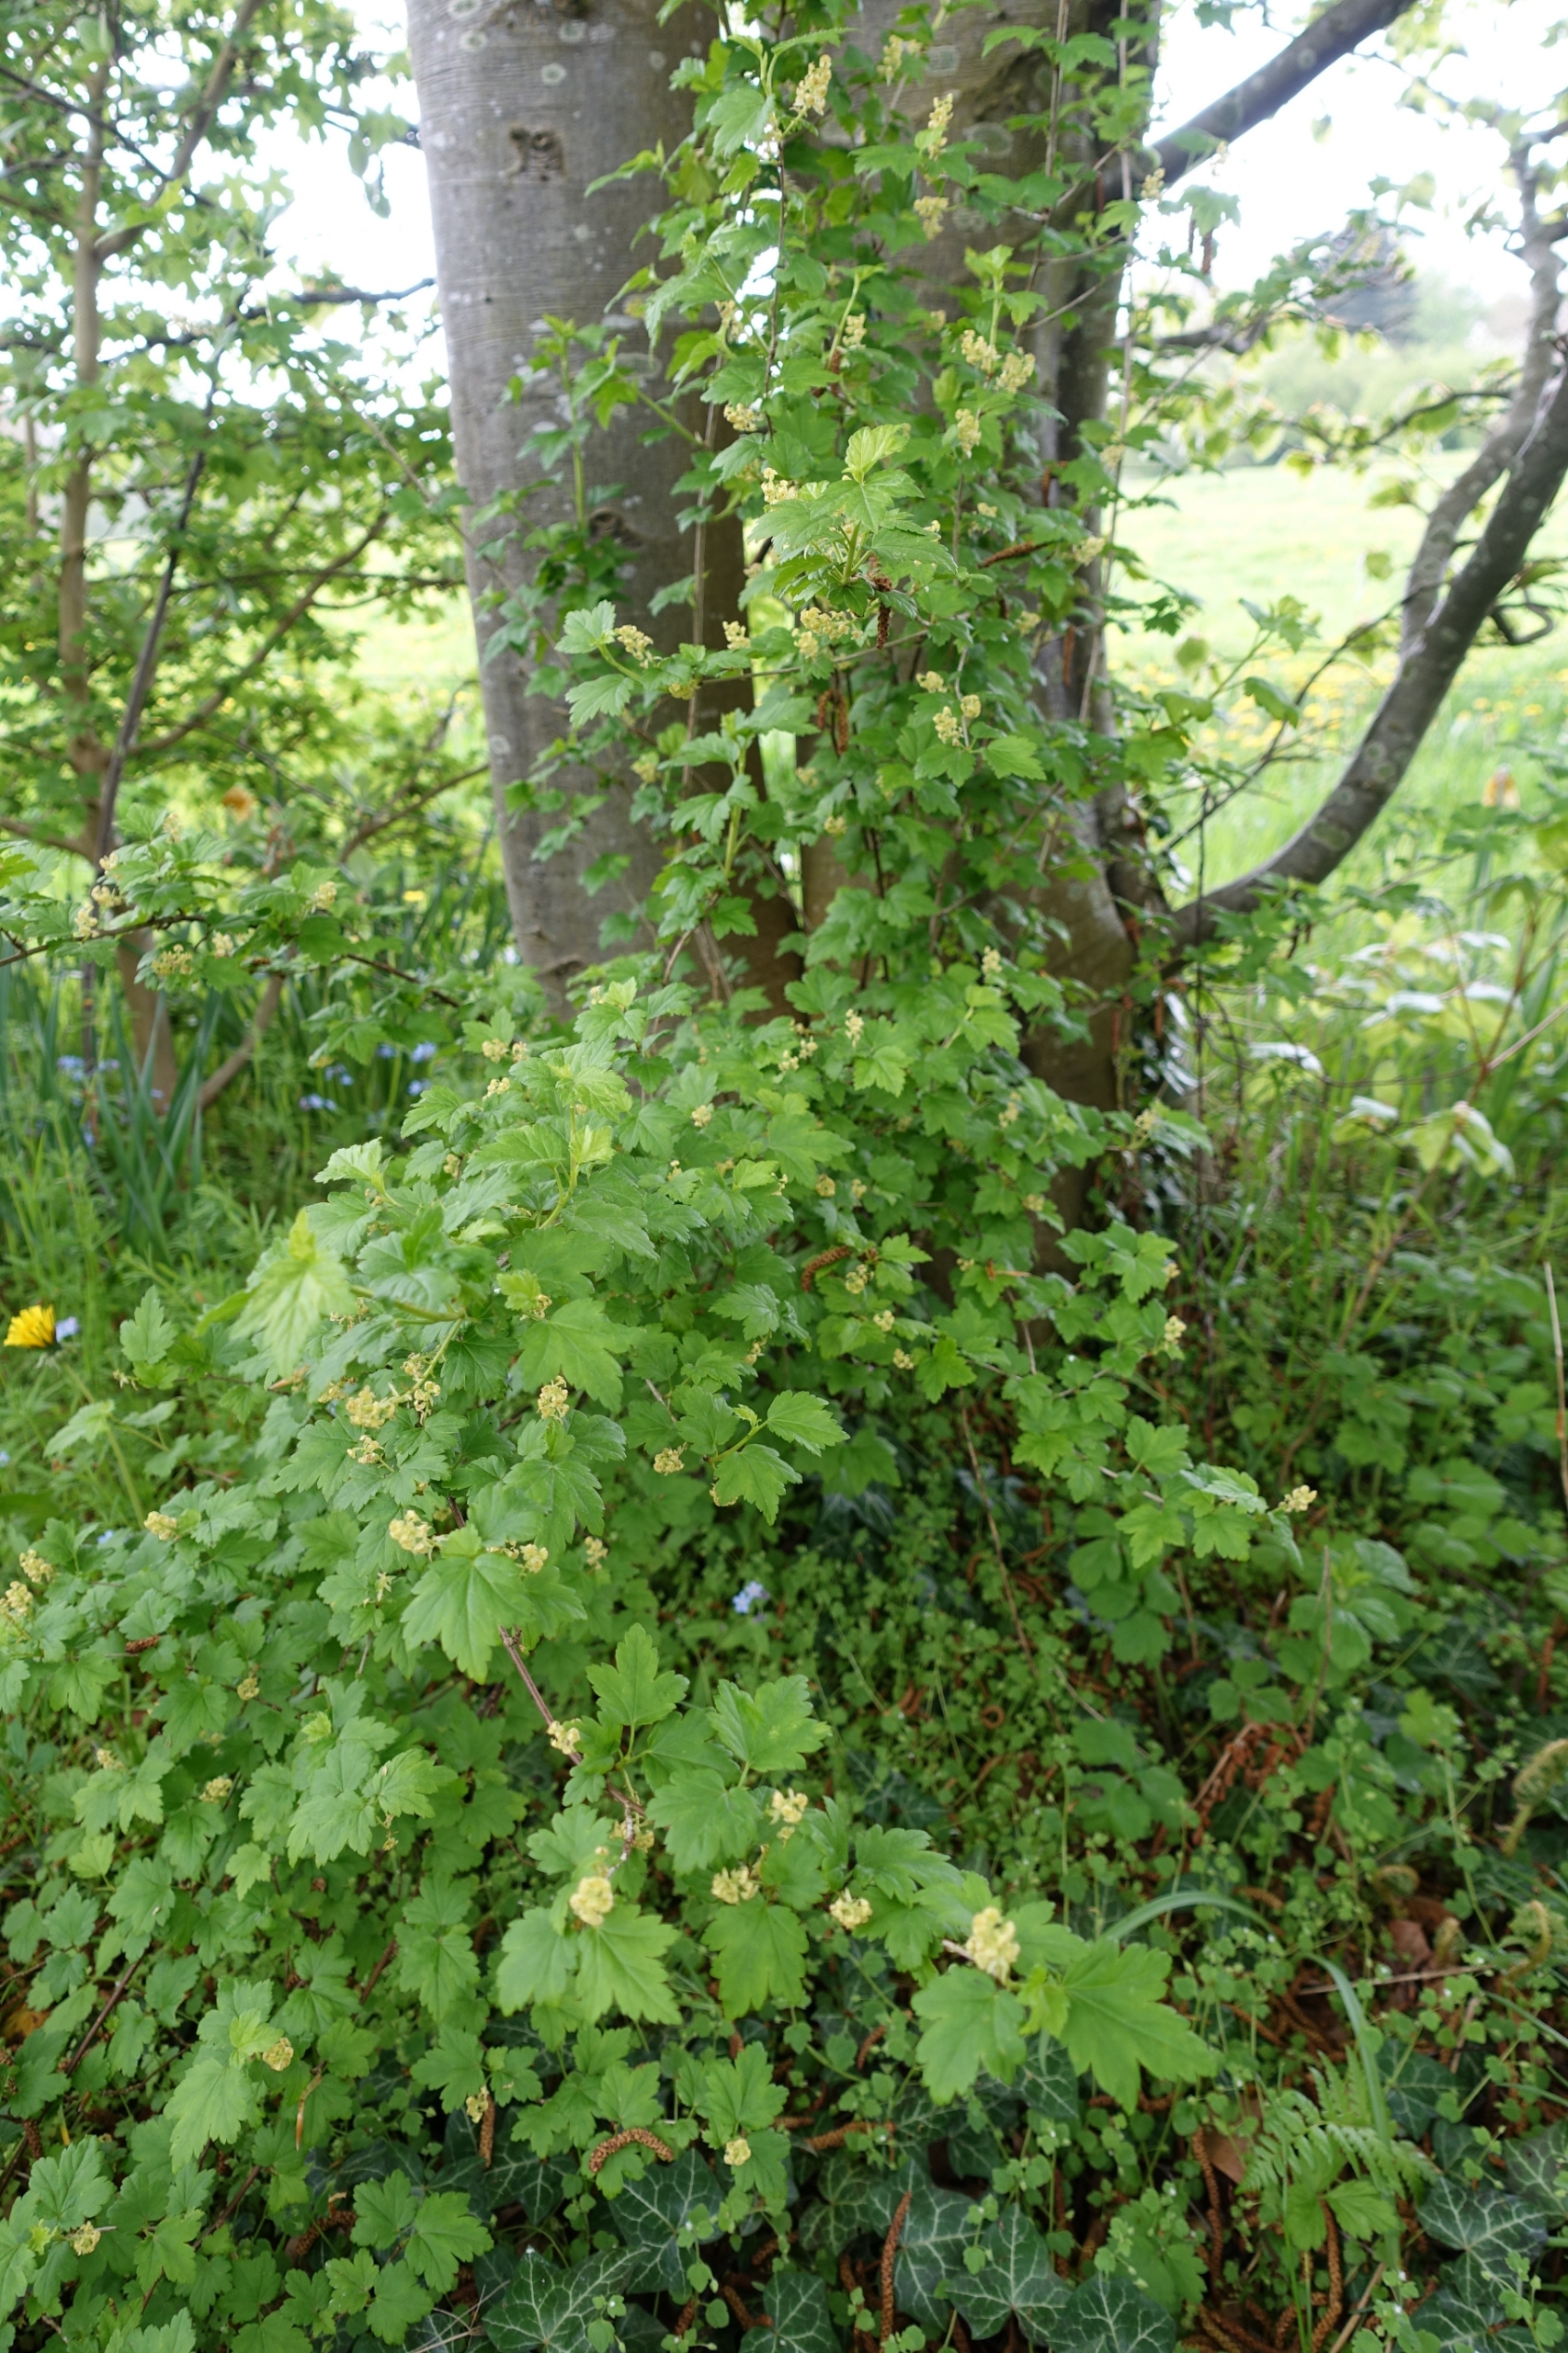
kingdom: Plantae
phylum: Tracheophyta
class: Magnoliopsida
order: Saxifragales
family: Grossulariaceae
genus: Ribes
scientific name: Ribes alpinum
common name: Fjeld-ribs
